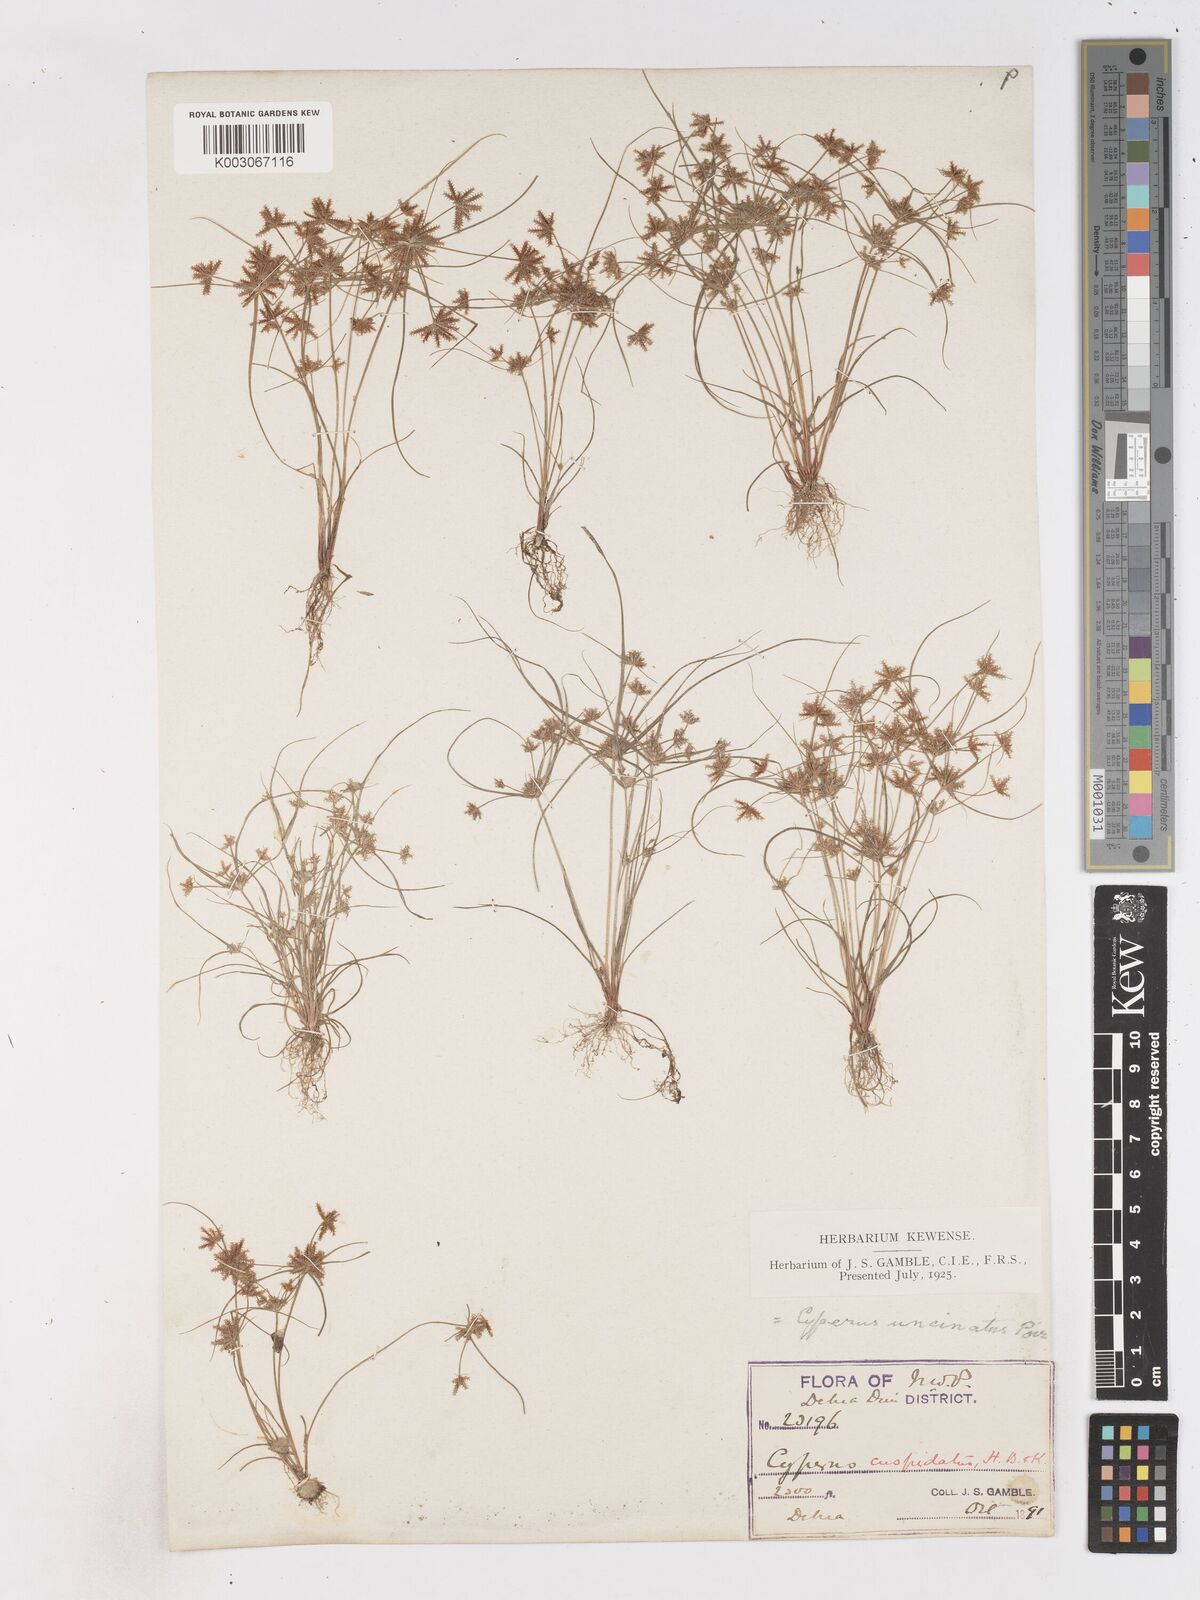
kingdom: Plantae
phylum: Tracheophyta
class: Liliopsida
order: Poales
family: Cyperaceae
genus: Cyperus
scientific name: Cyperus cuspidatus
